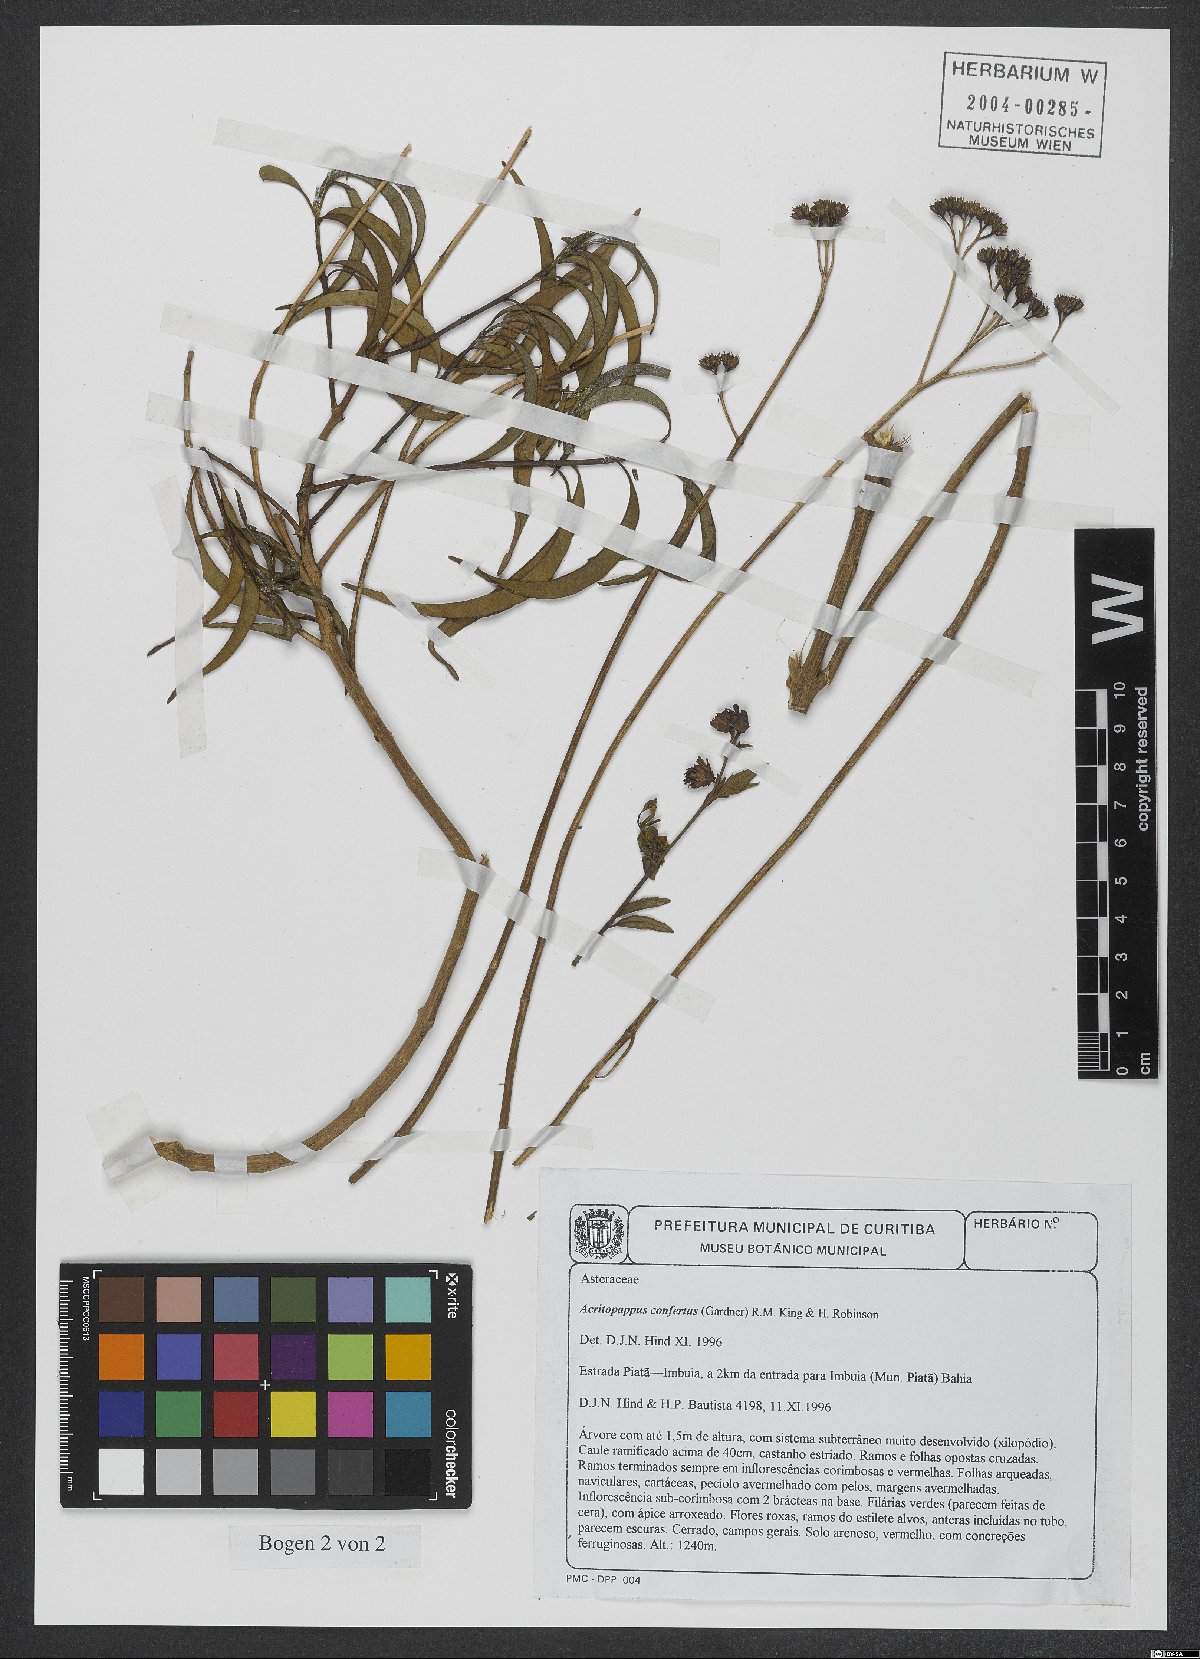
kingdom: Plantae
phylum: Tracheophyta
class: Magnoliopsida
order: Asterales
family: Asteraceae
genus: Acritopappus
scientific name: Acritopappus confertus
